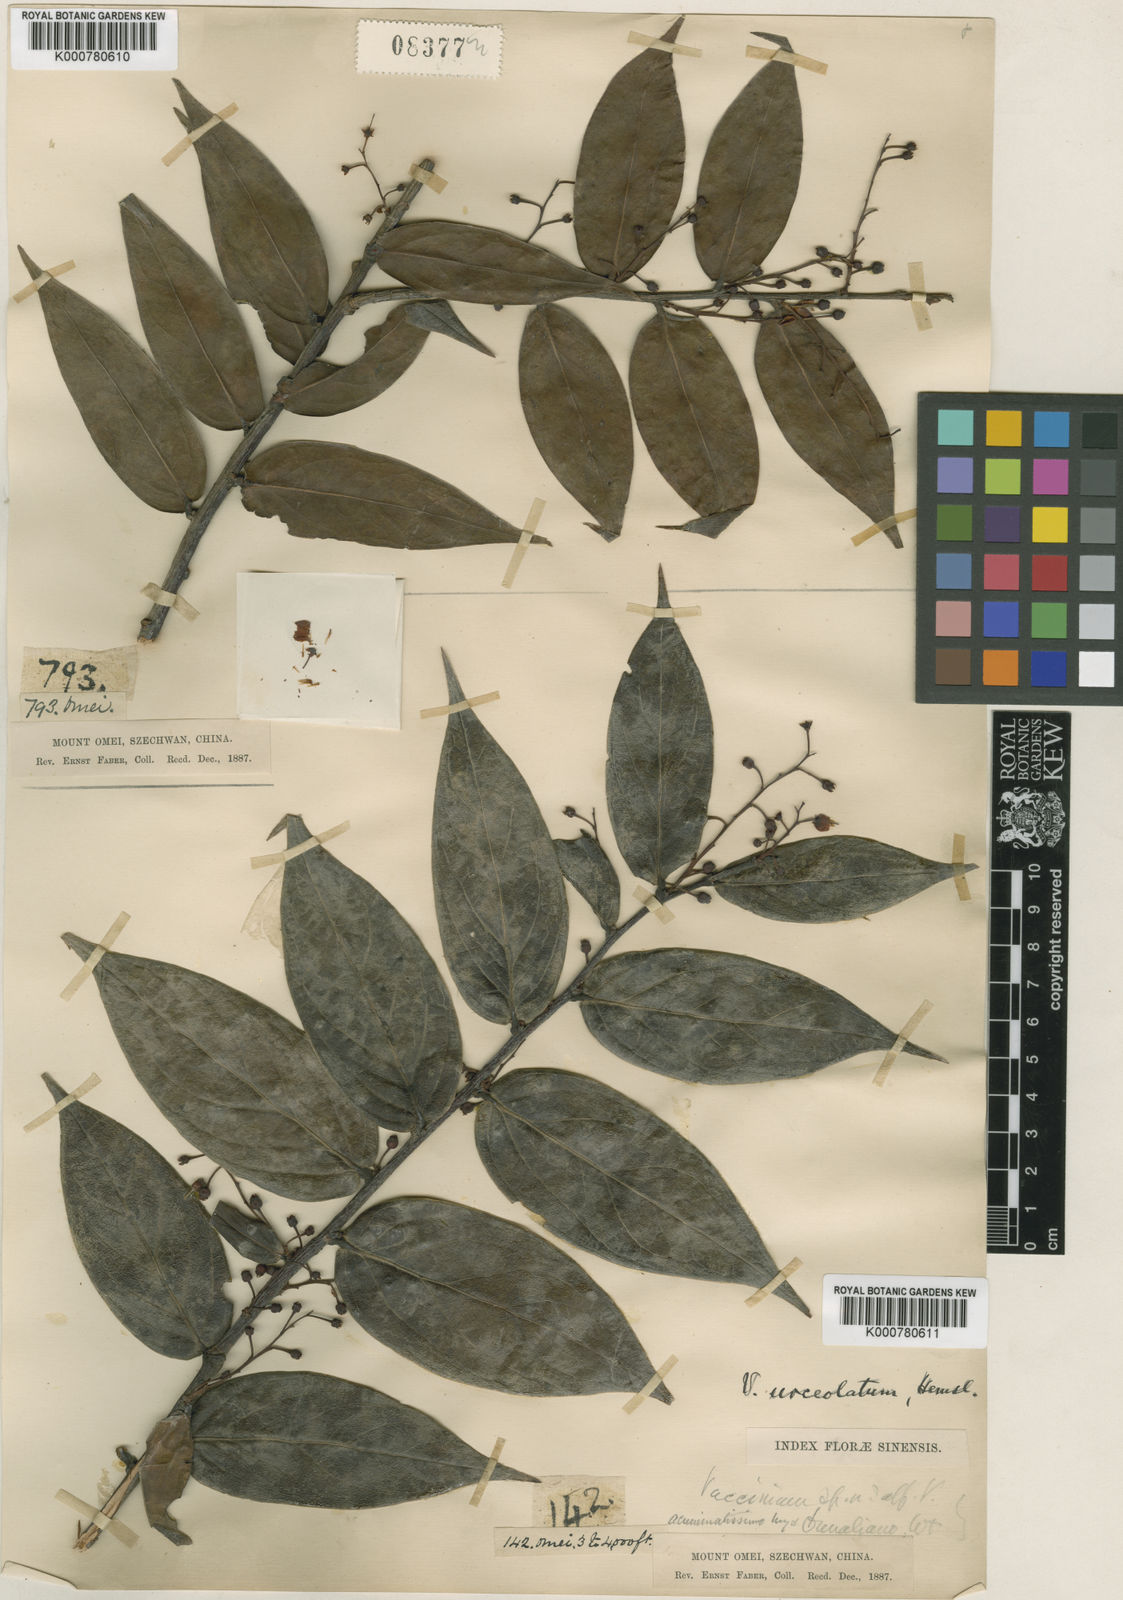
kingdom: Plantae
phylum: Tracheophyta
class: Magnoliopsida
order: Ericales
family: Ericaceae
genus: Vaccinium
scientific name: Vaccinium urceolatum
